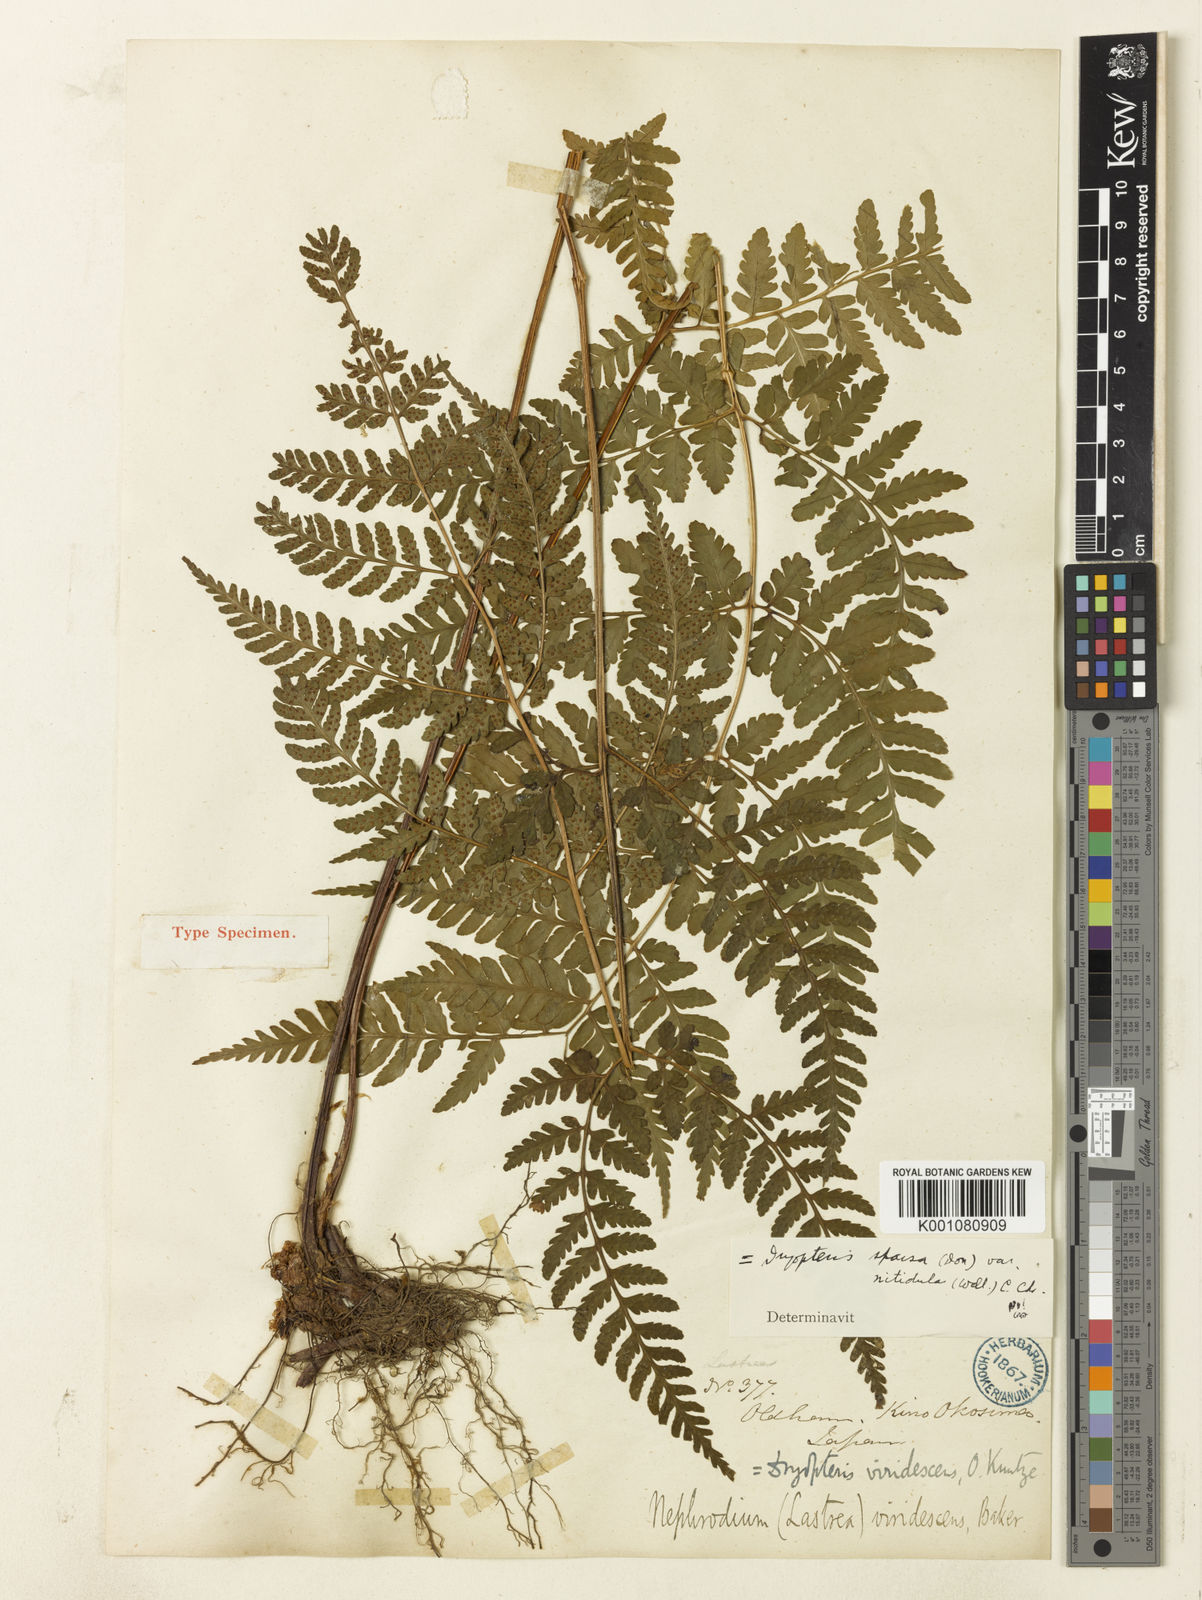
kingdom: Plantae
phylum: Tracheophyta
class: Polypodiopsida
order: Polypodiales
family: Dryopteridaceae
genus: Dryopteris
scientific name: Dryopteris sparsa
